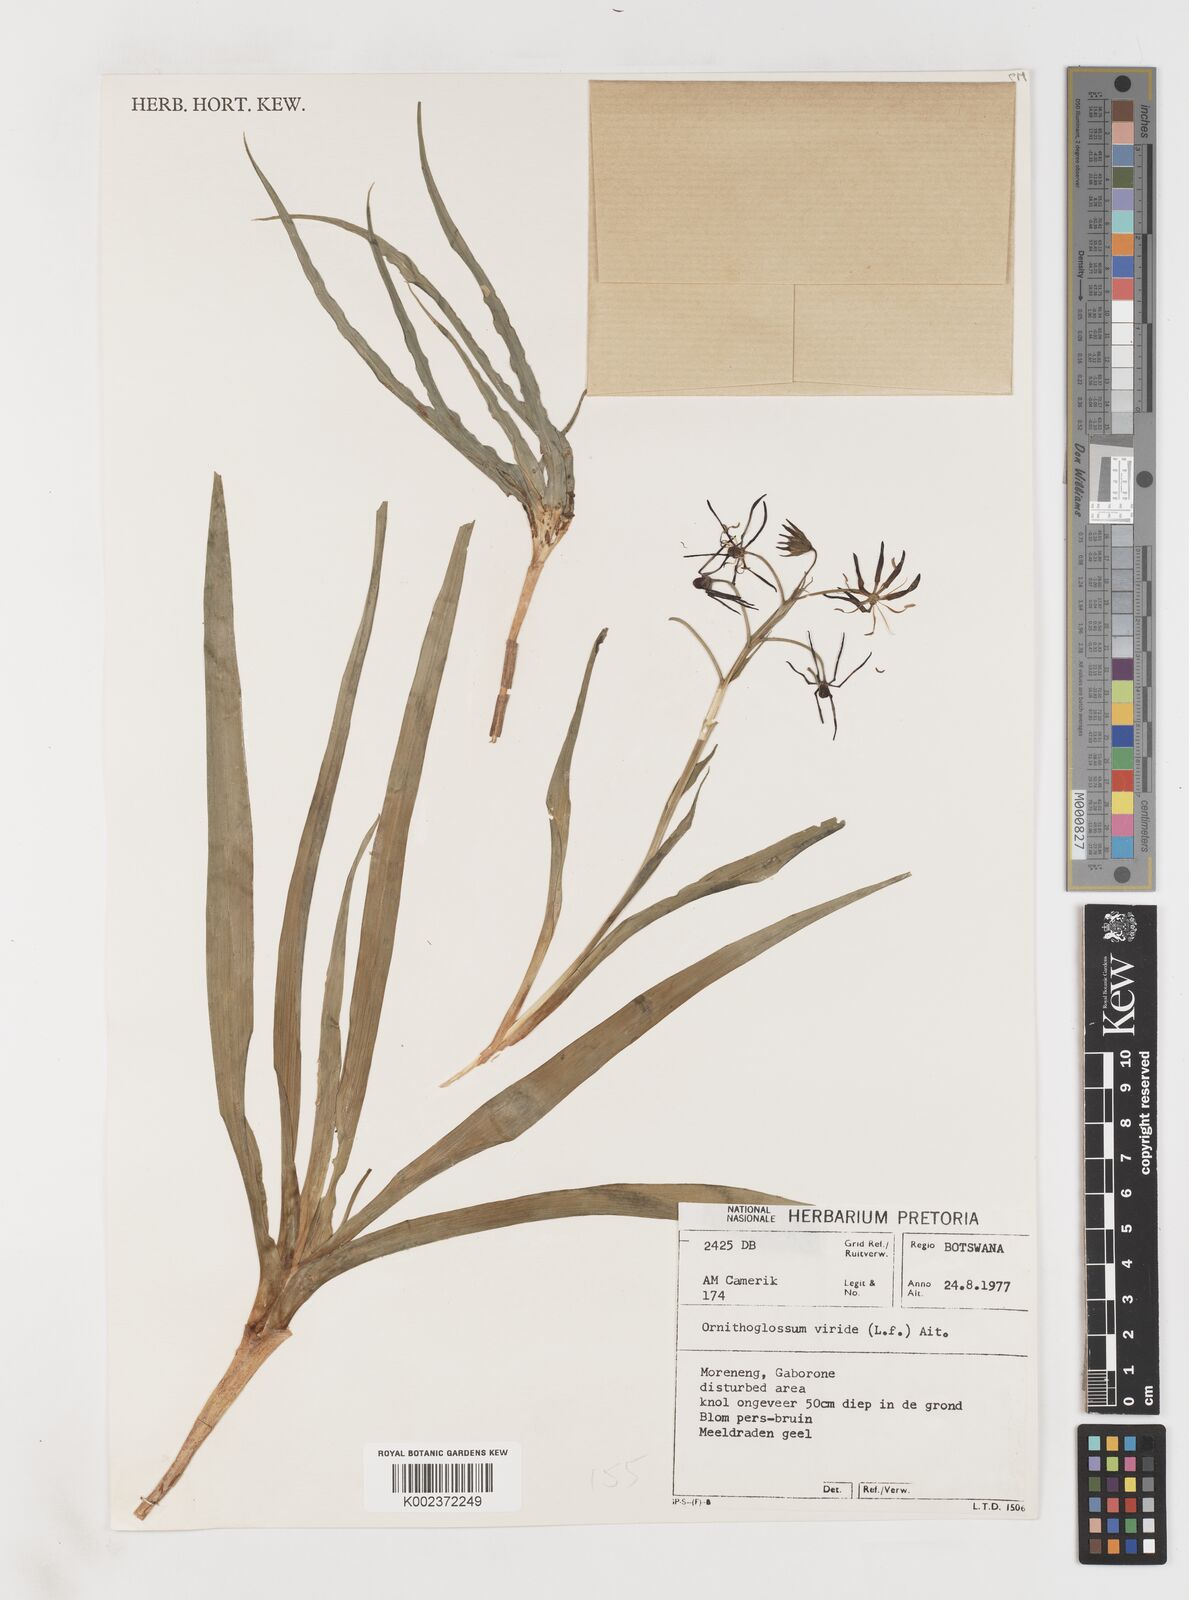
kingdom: Plantae
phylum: Tracheophyta
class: Liliopsida
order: Liliales
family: Colchicaceae
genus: Ornithoglossum
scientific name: Ornithoglossum vulgare
